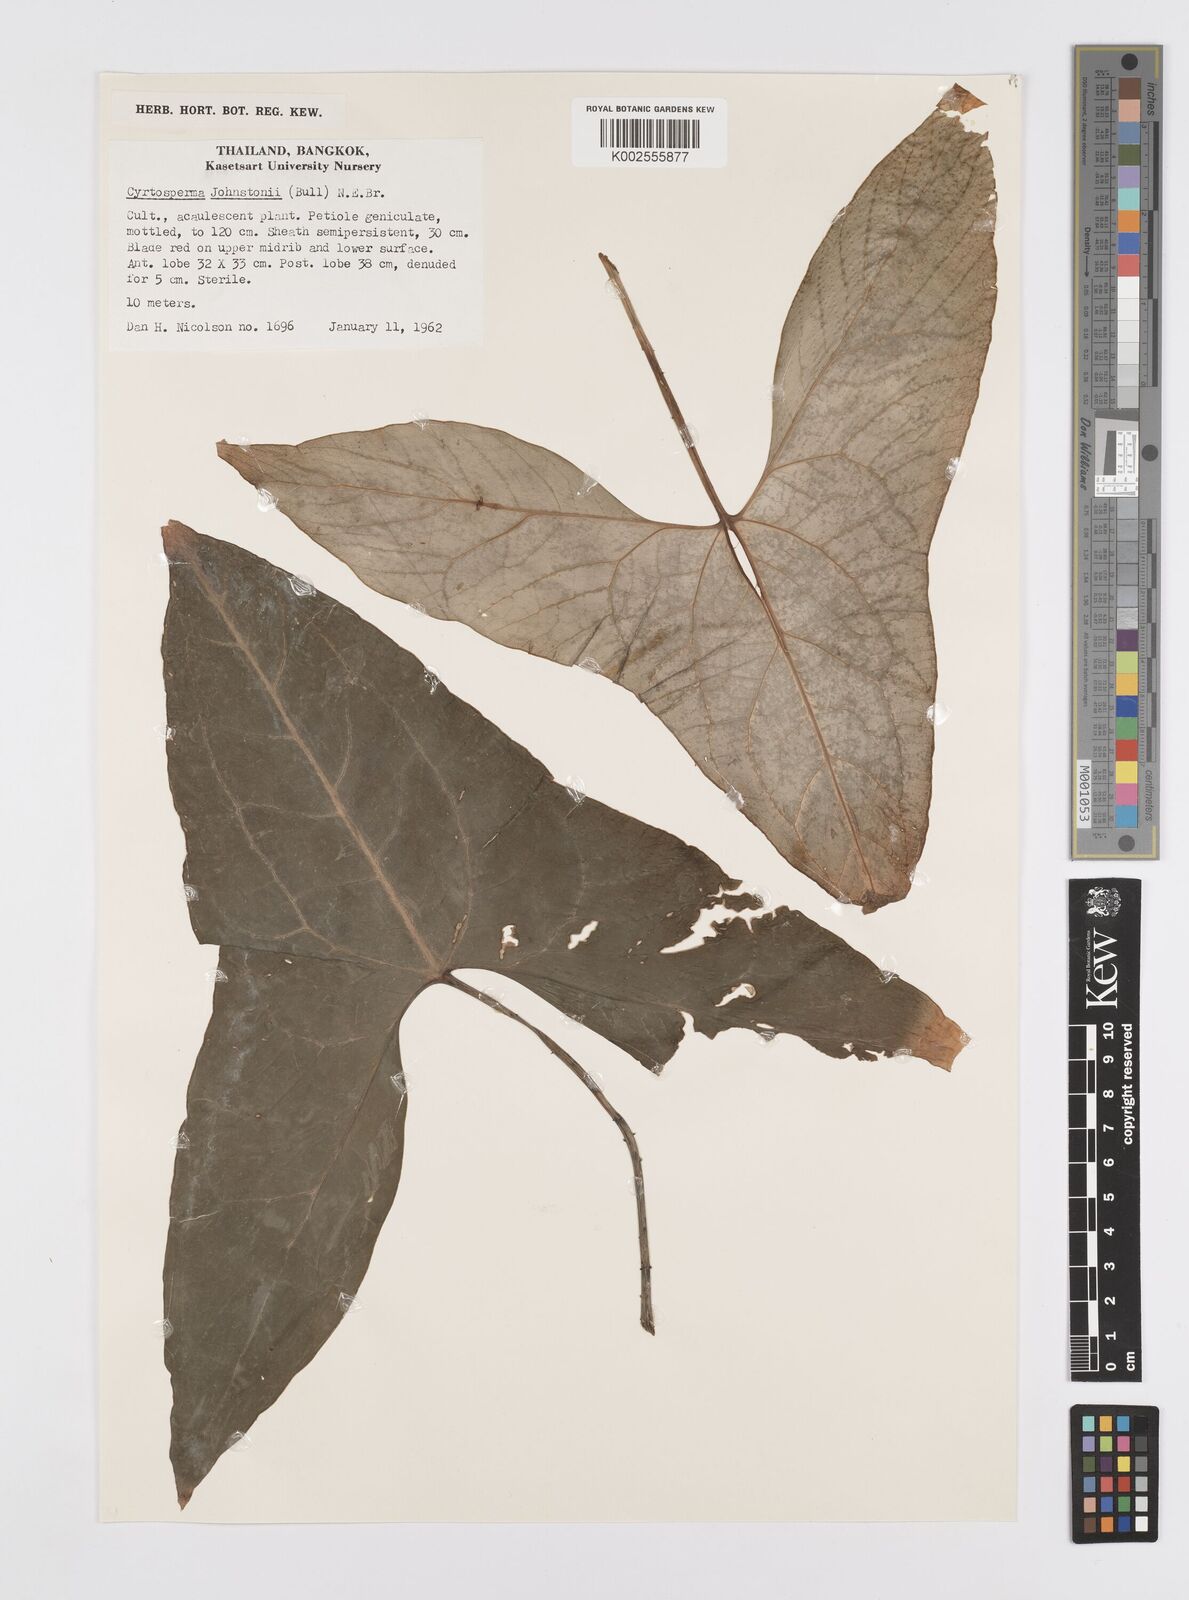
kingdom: Plantae
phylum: Tracheophyta
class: Liliopsida
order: Alismatales
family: Araceae
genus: Cyrtosperma
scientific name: Cyrtosperma johnstonii
